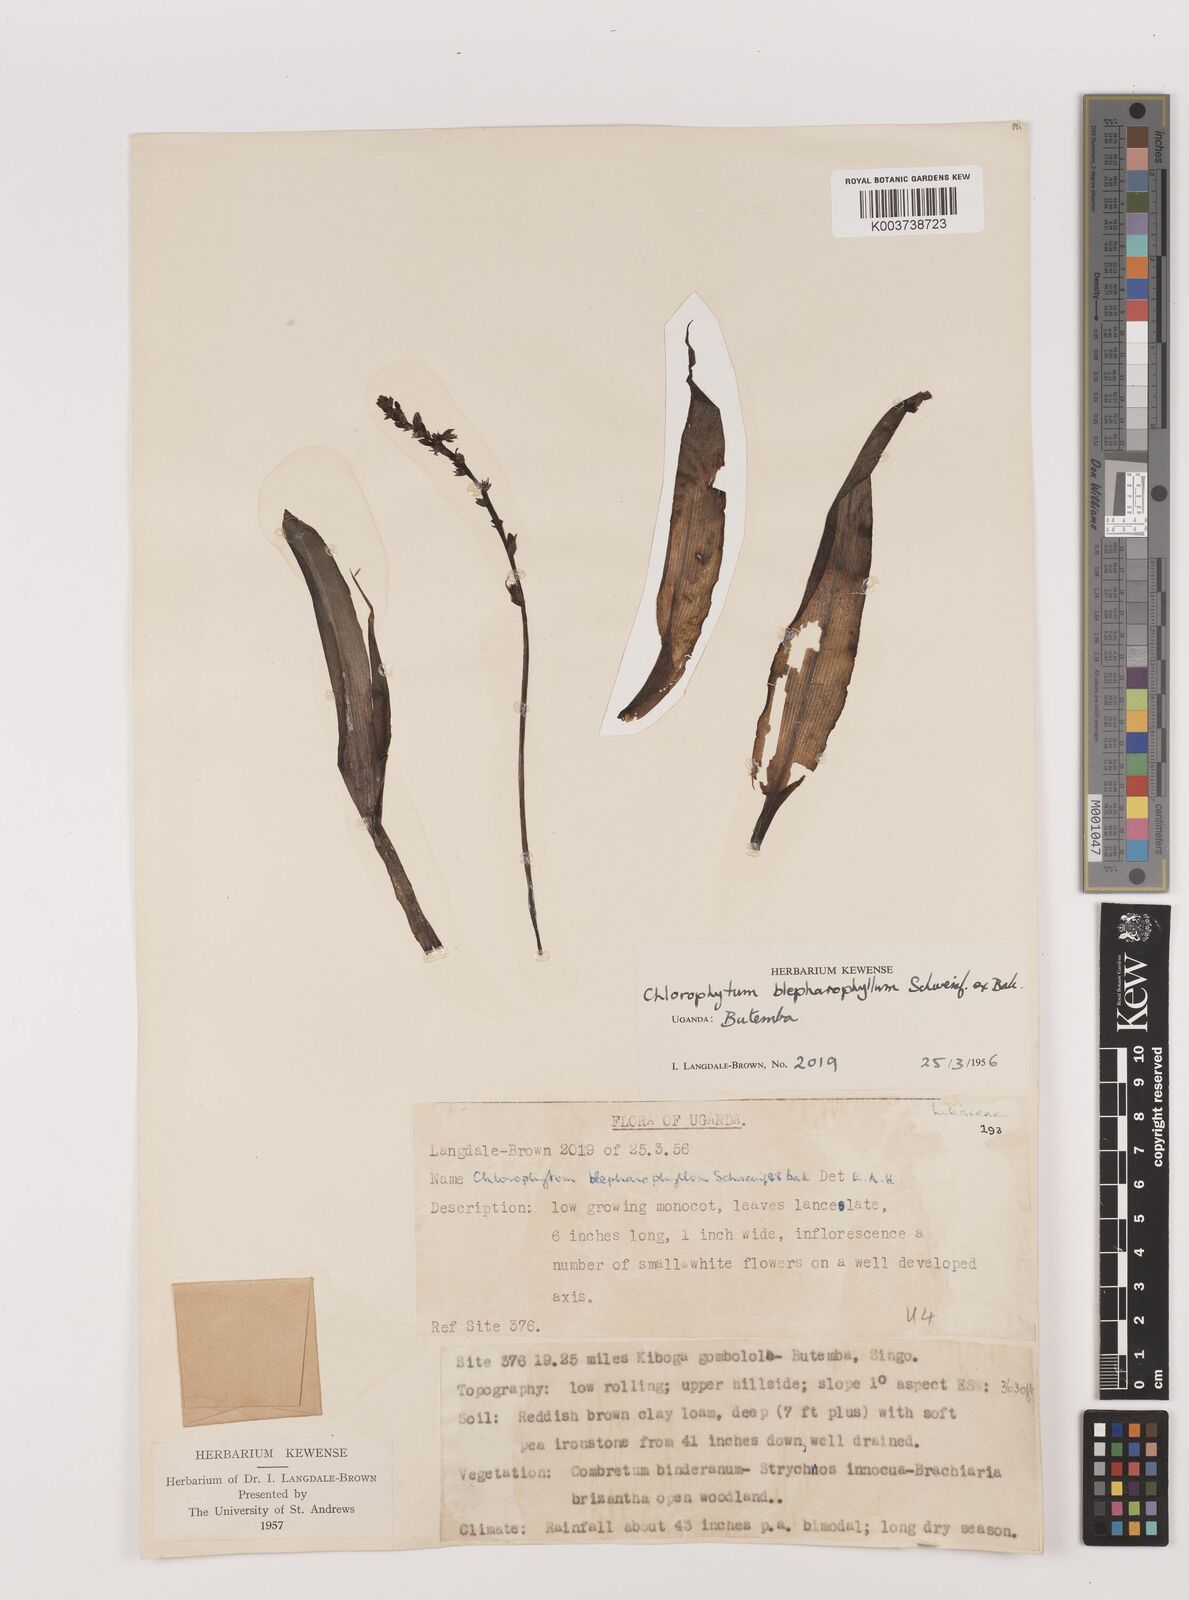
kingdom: Plantae
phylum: Tracheophyta
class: Liliopsida
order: Asparagales
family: Asparagaceae
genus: Chlorophytum
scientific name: Chlorophytum blepharophyllum
